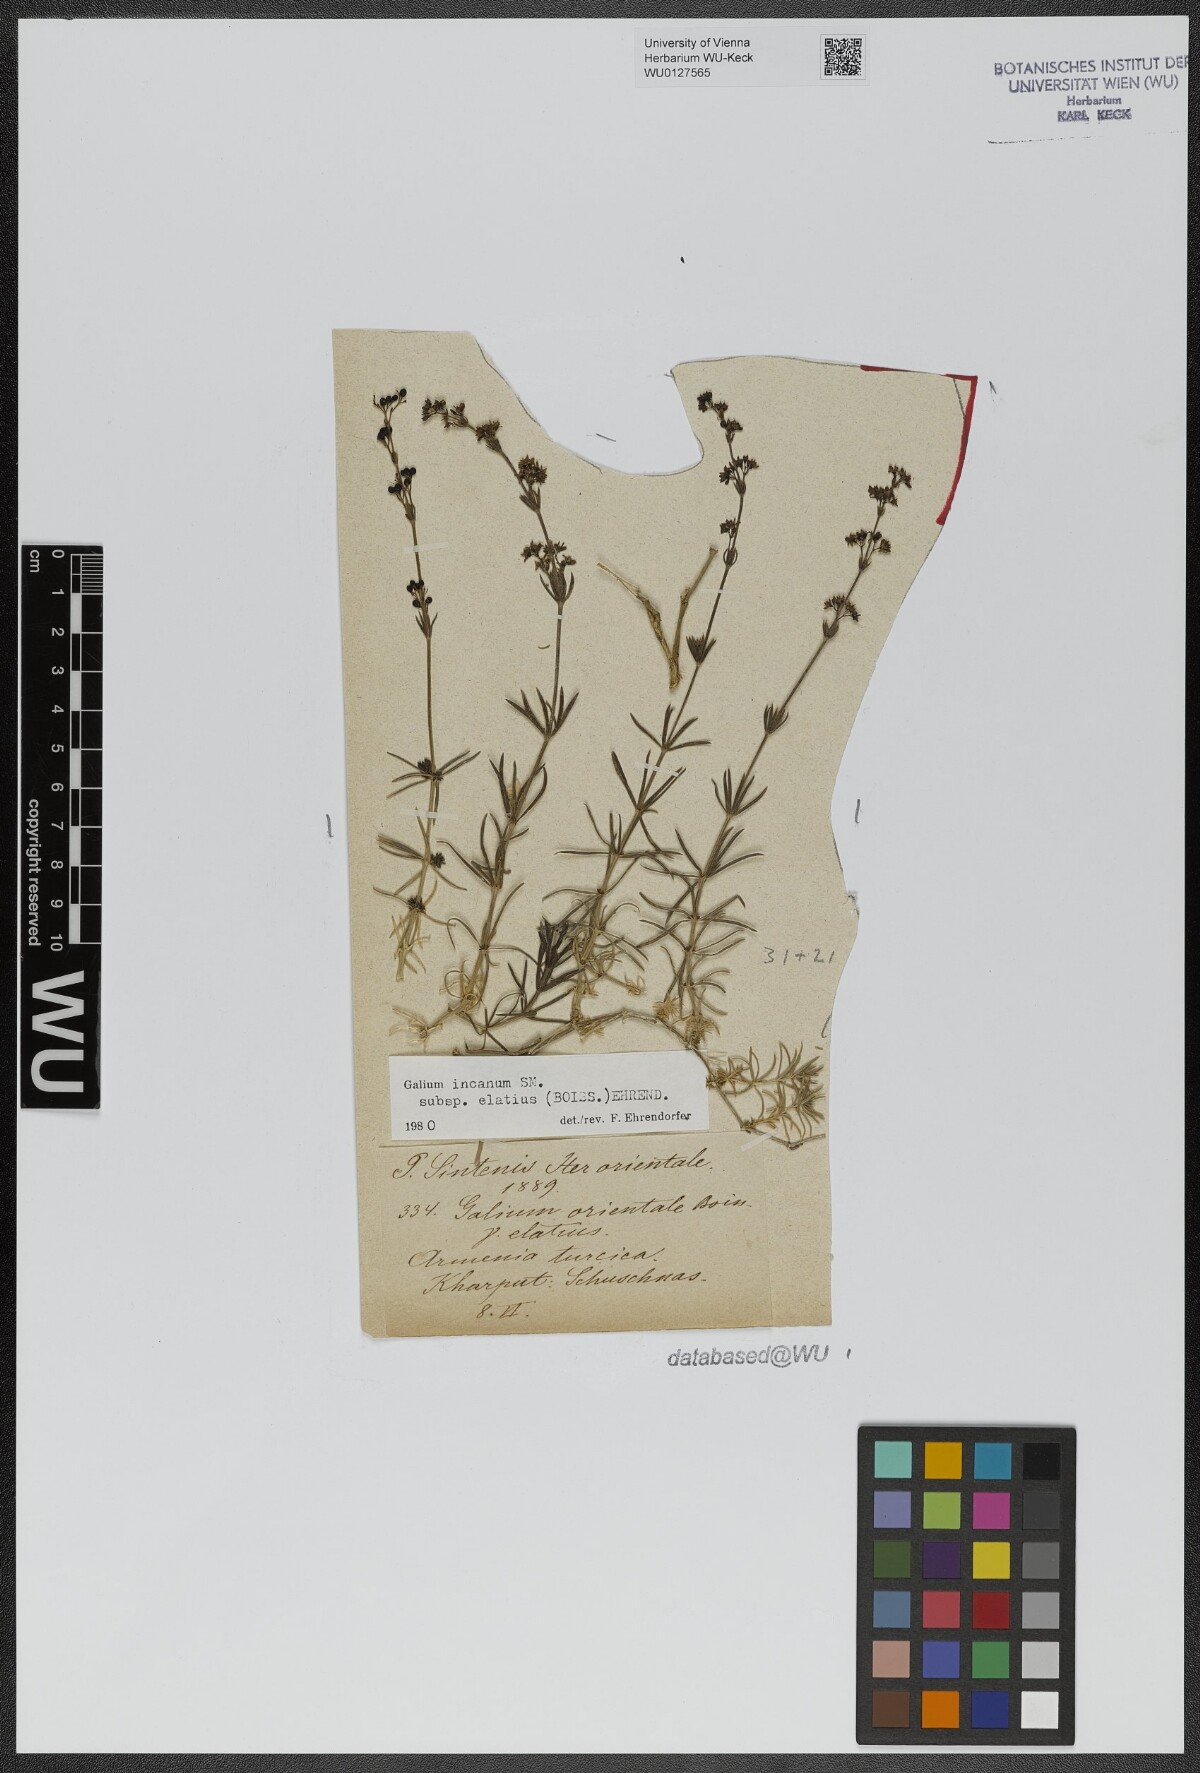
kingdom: Plantae
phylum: Tracheophyta
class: Magnoliopsida
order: Gentianales
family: Rubiaceae
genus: Galium
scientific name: Galium incanum
